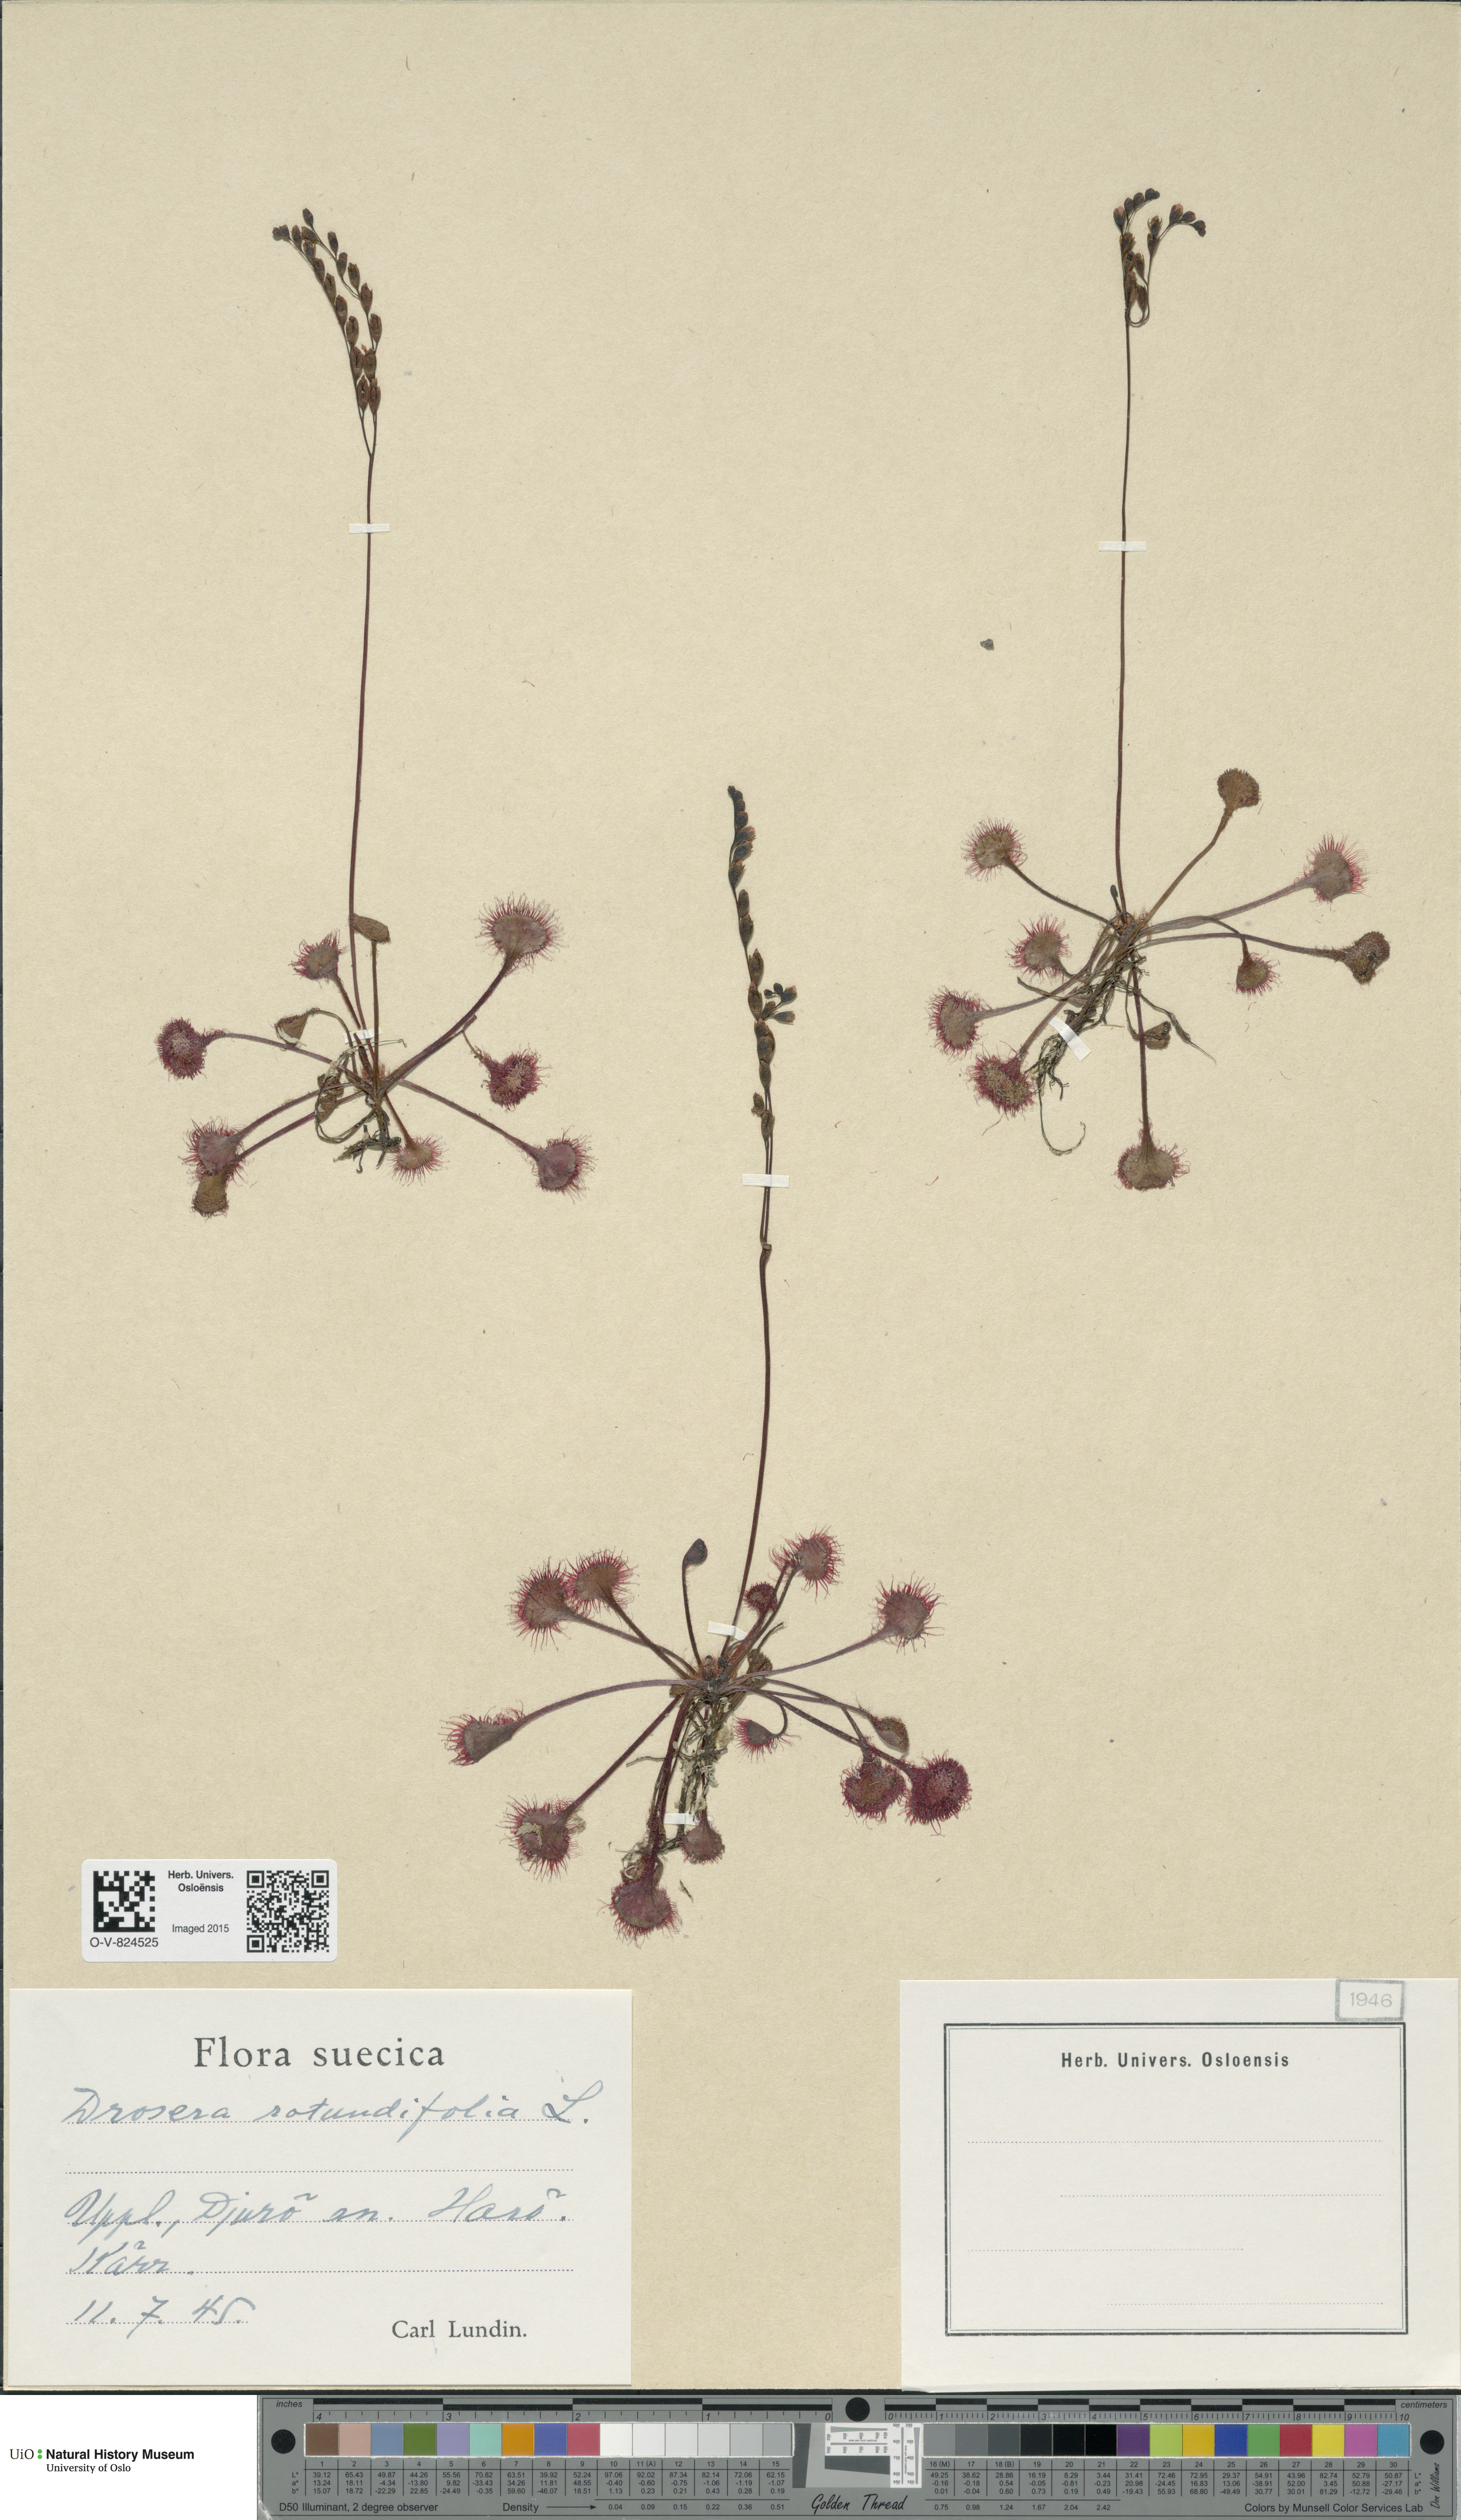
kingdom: Plantae
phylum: Tracheophyta
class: Magnoliopsida
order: Caryophyllales
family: Droseraceae
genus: Drosera
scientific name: Drosera rotundifolia
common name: Round-leaved sundew
